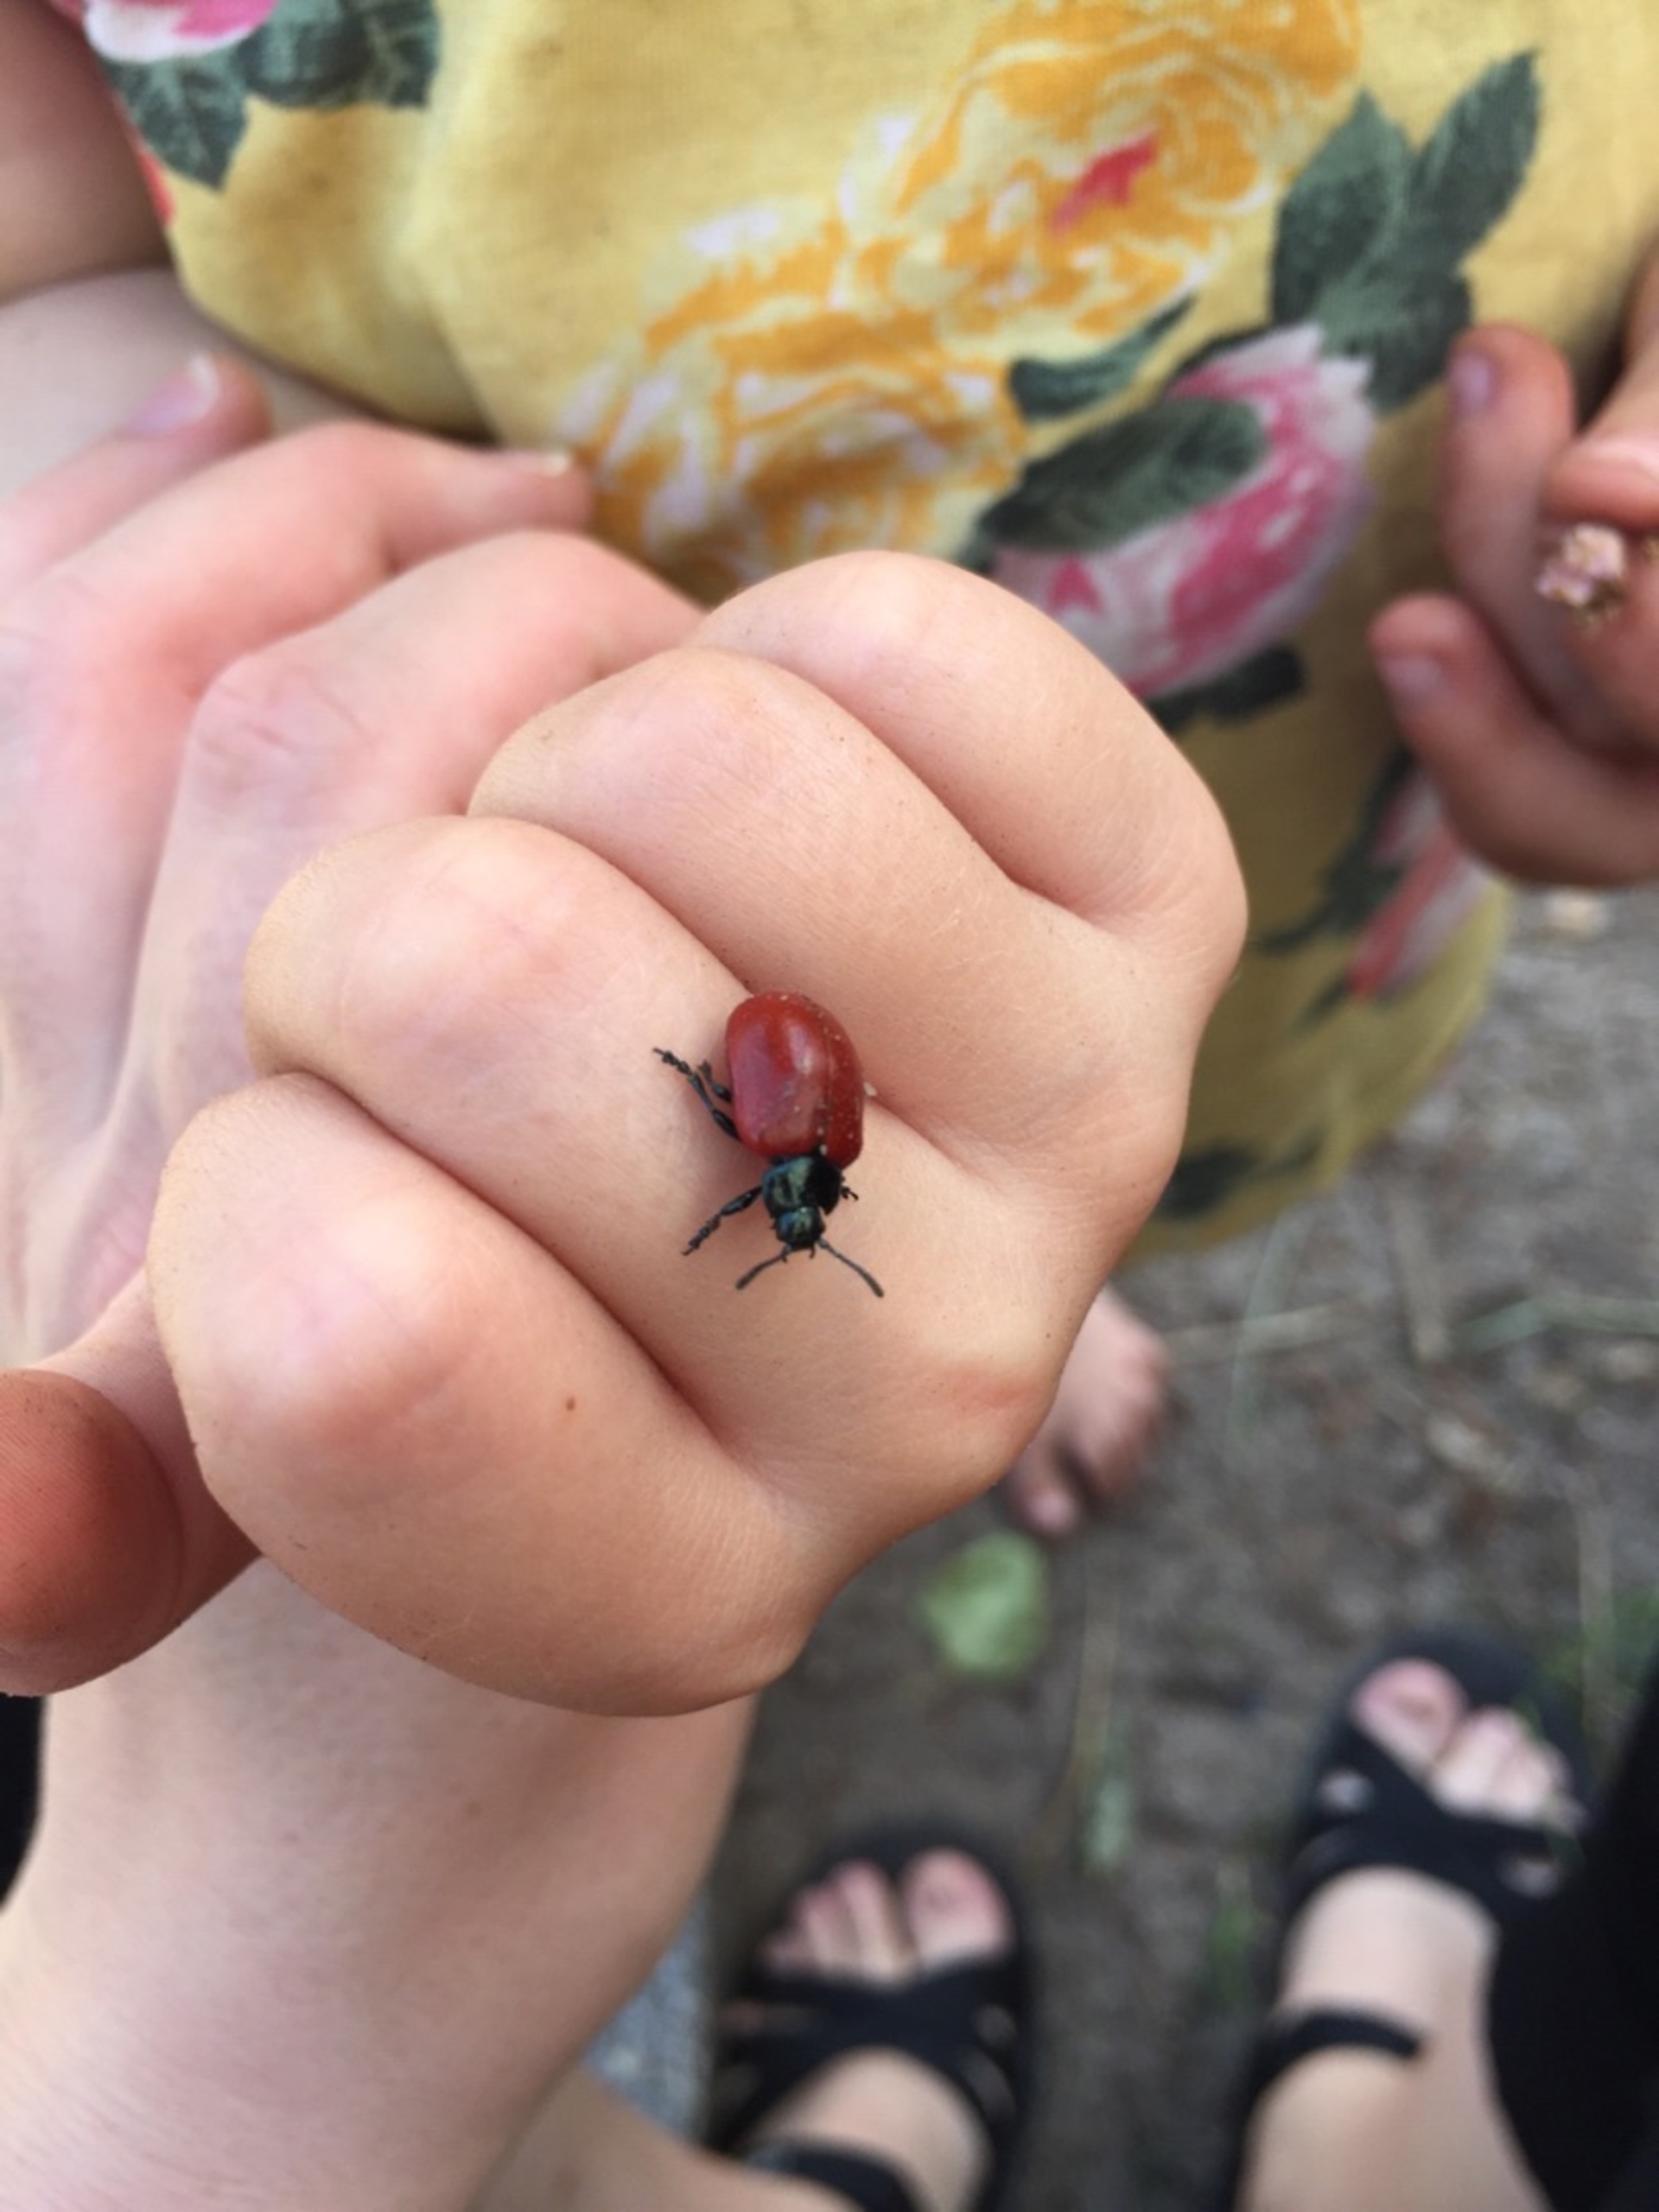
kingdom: Animalia
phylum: Arthropoda
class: Insecta
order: Coleoptera
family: Chrysomelidae
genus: Chrysomela
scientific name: Chrysomela populi
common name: Poppelbladbille
